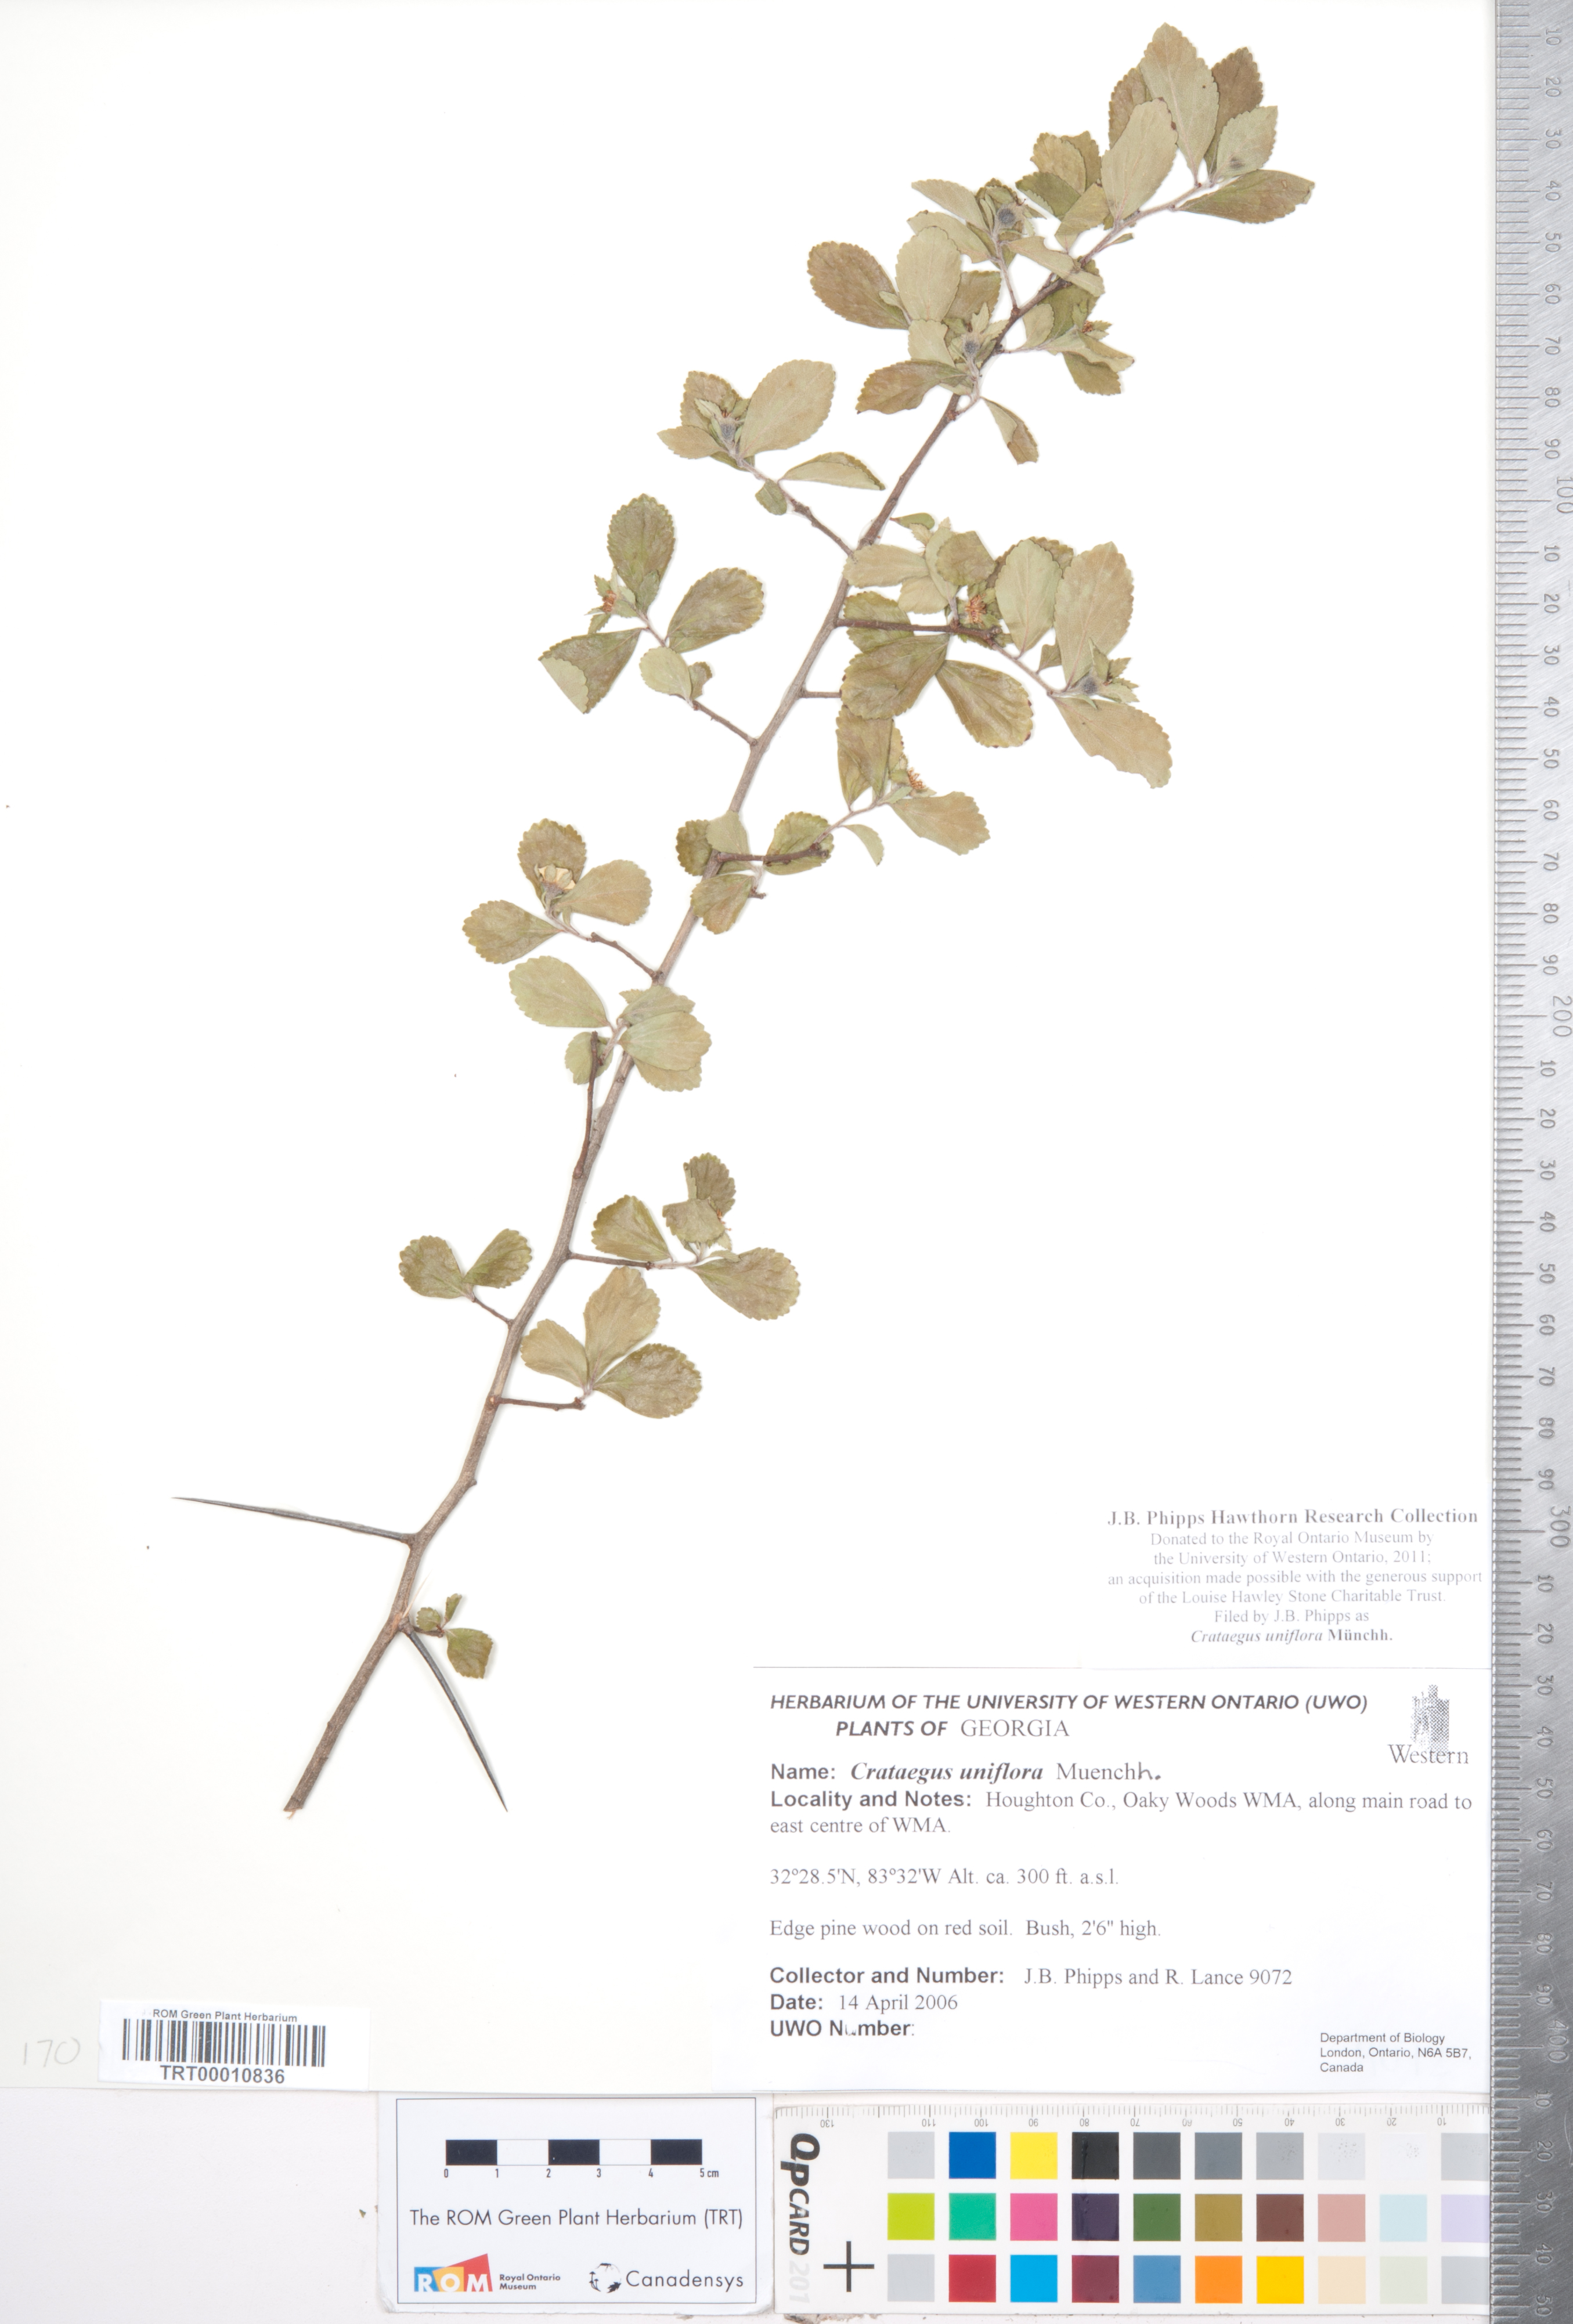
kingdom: Plantae
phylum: Tracheophyta
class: Magnoliopsida
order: Rosales
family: Rosaceae
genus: Crataegus
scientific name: Crataegus uniflora
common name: One-flower hawthorn
